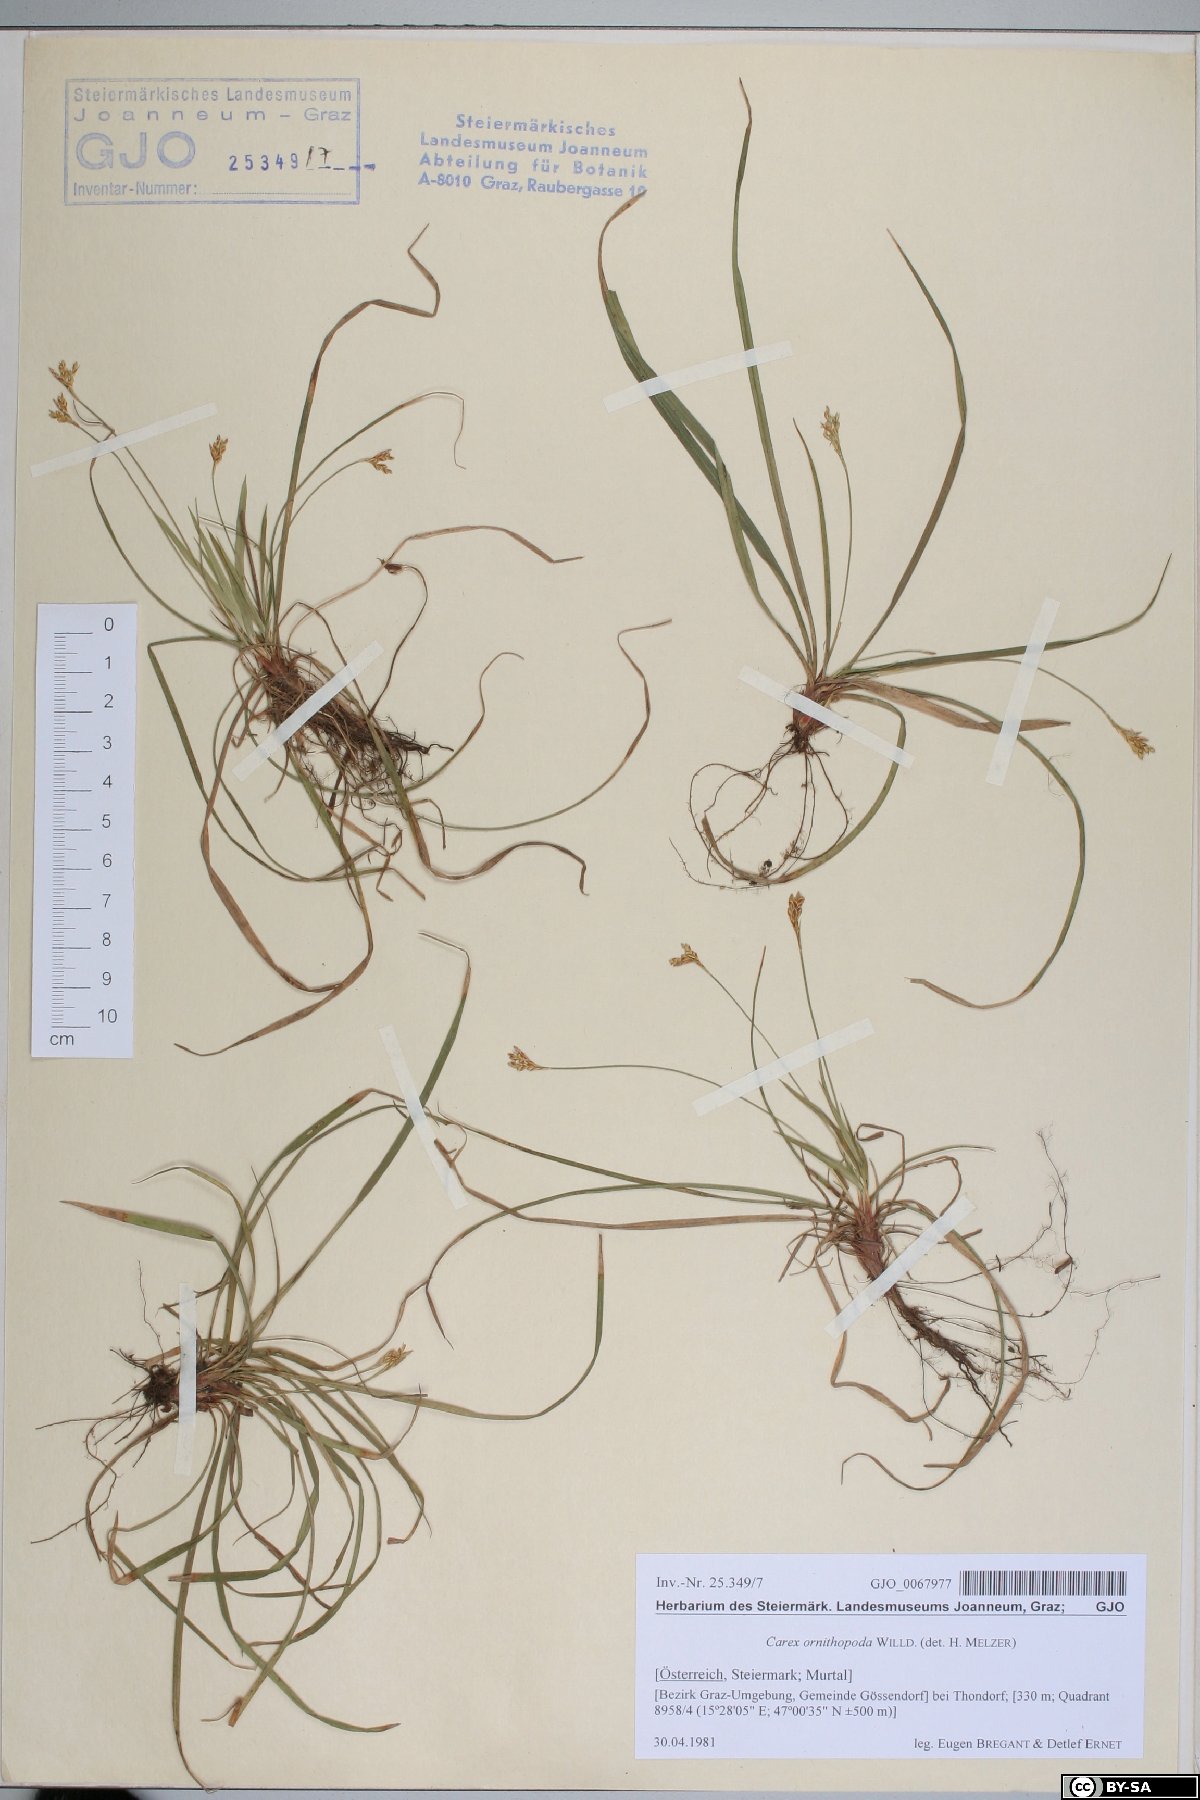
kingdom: Plantae
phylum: Tracheophyta
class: Liliopsida
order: Poales
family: Cyperaceae
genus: Carex
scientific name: Carex ornithopoda
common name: Bird's-foot sedge
